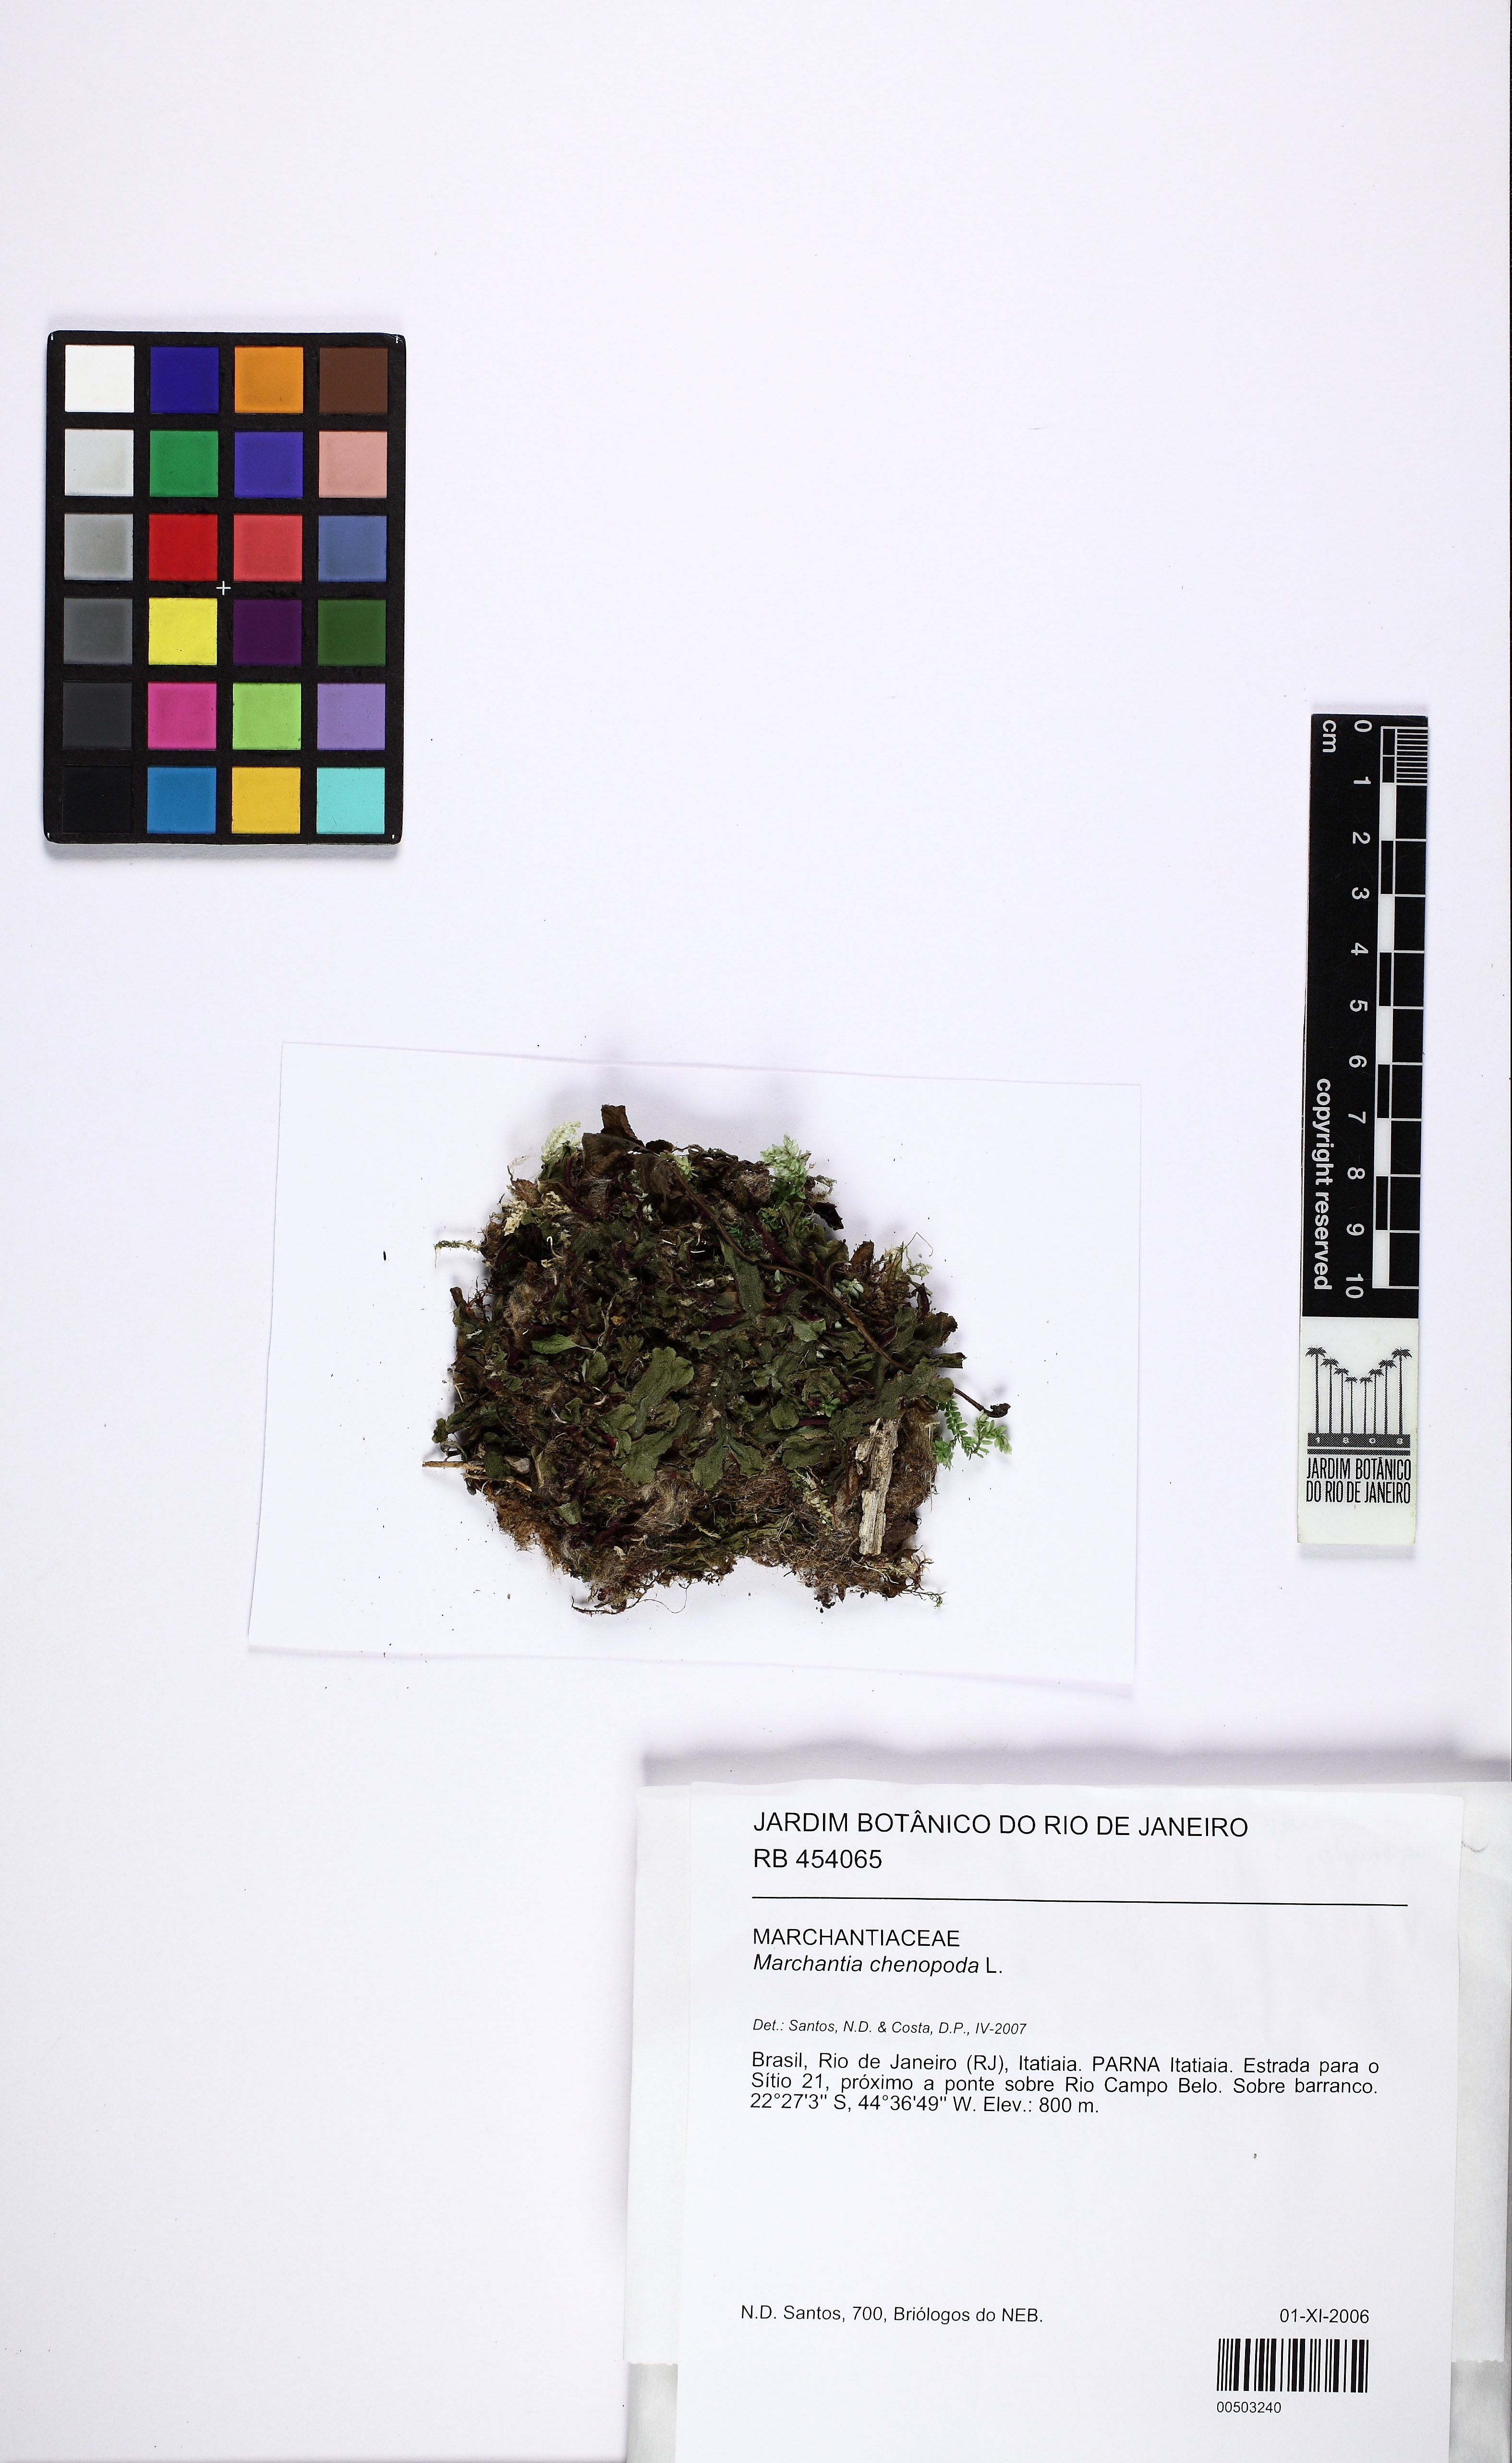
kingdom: Plantae
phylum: Marchantiophyta
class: Marchantiopsida
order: Marchantiales
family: Marchantiaceae
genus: Marchantia
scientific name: Marchantia chenopoda
